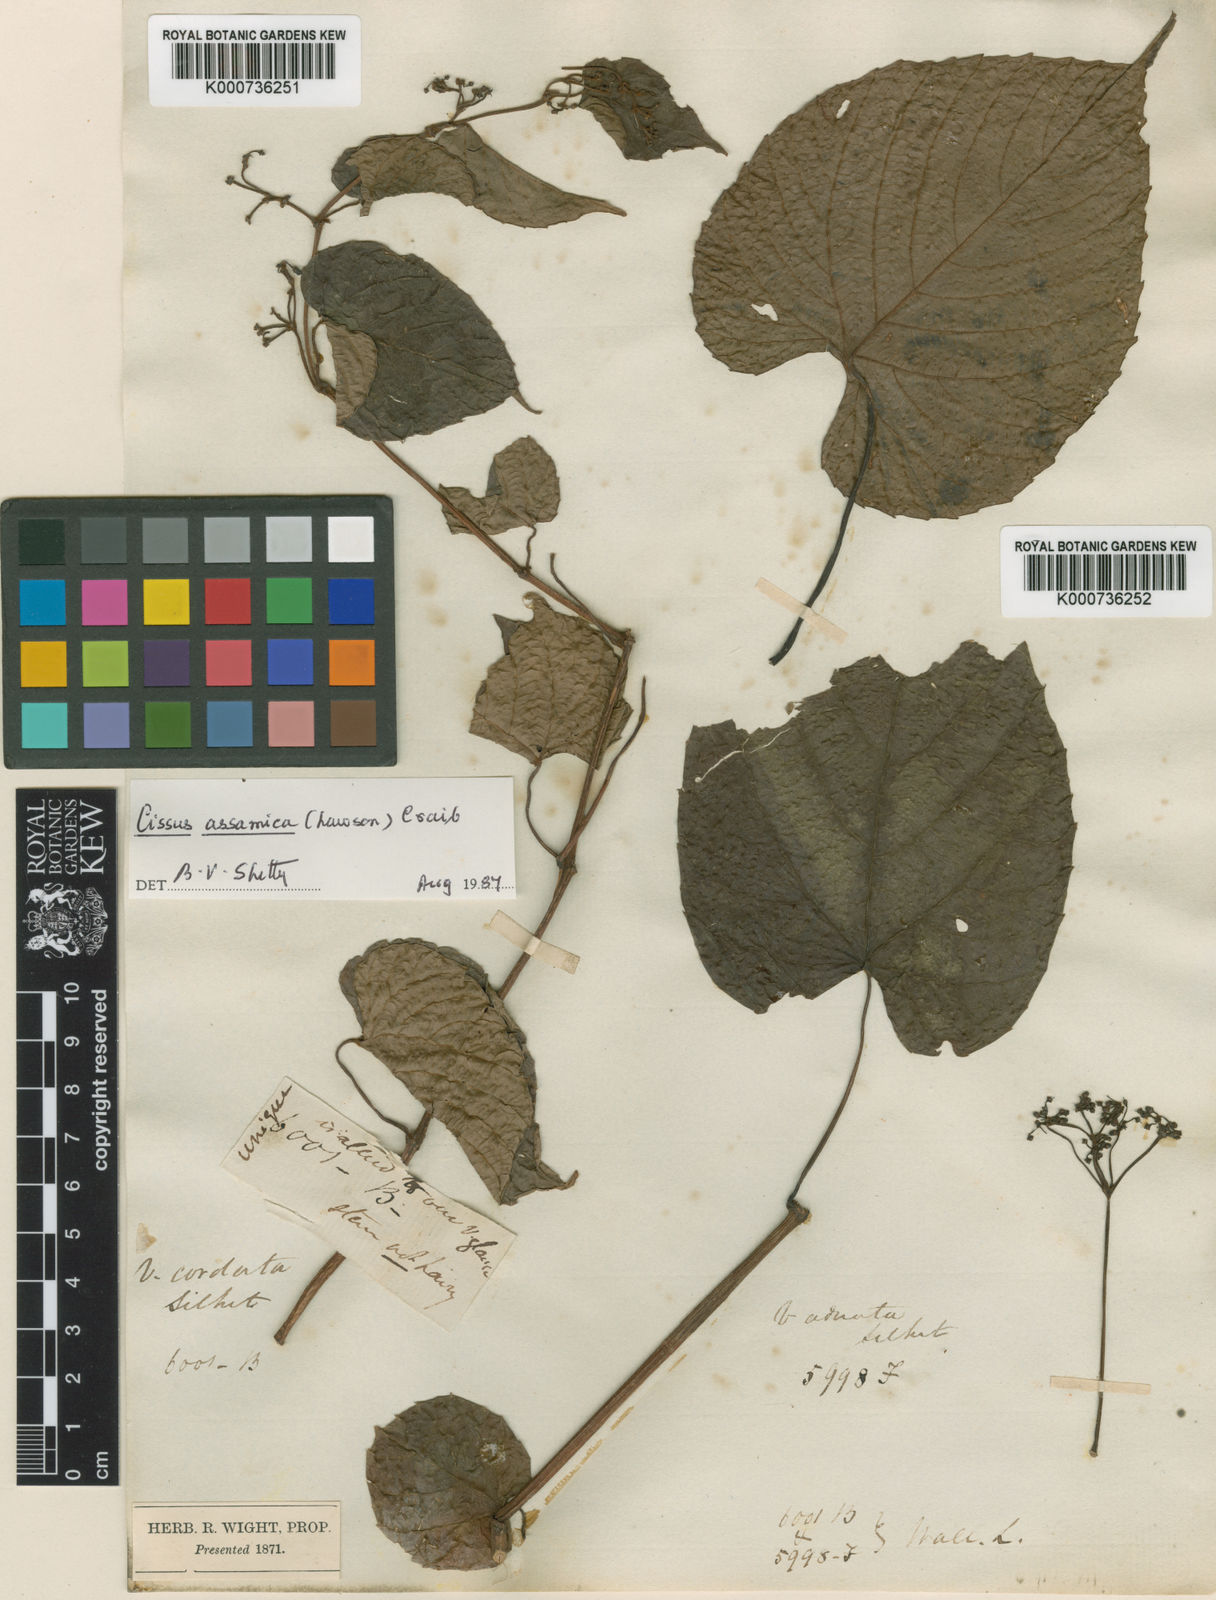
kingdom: Plantae
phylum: Tracheophyta
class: Magnoliopsida
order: Vitales
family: Vitaceae
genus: Cissus
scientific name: Cissus assamica
